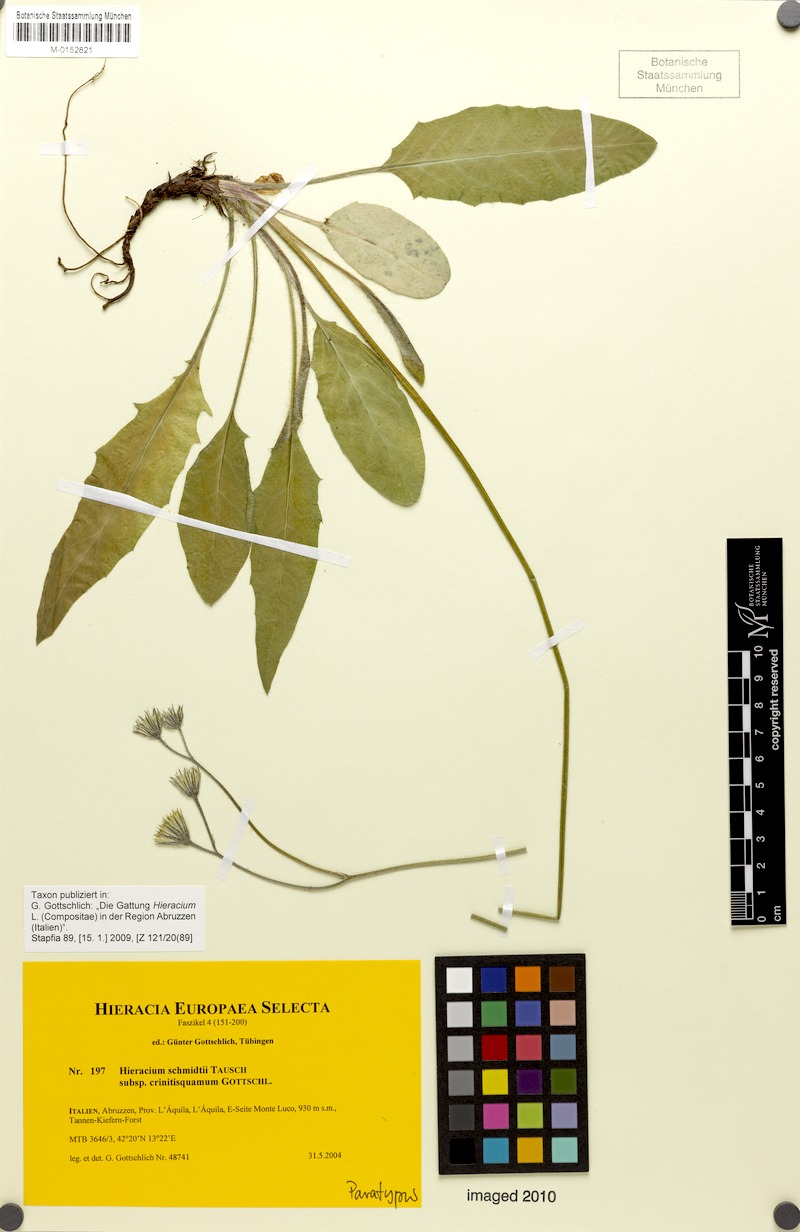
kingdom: Plantae
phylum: Tracheophyta
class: Magnoliopsida
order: Asterales
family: Asteraceae
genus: Hieracium
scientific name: Hieracium schmidtii
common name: Schmidt's hawkweed
